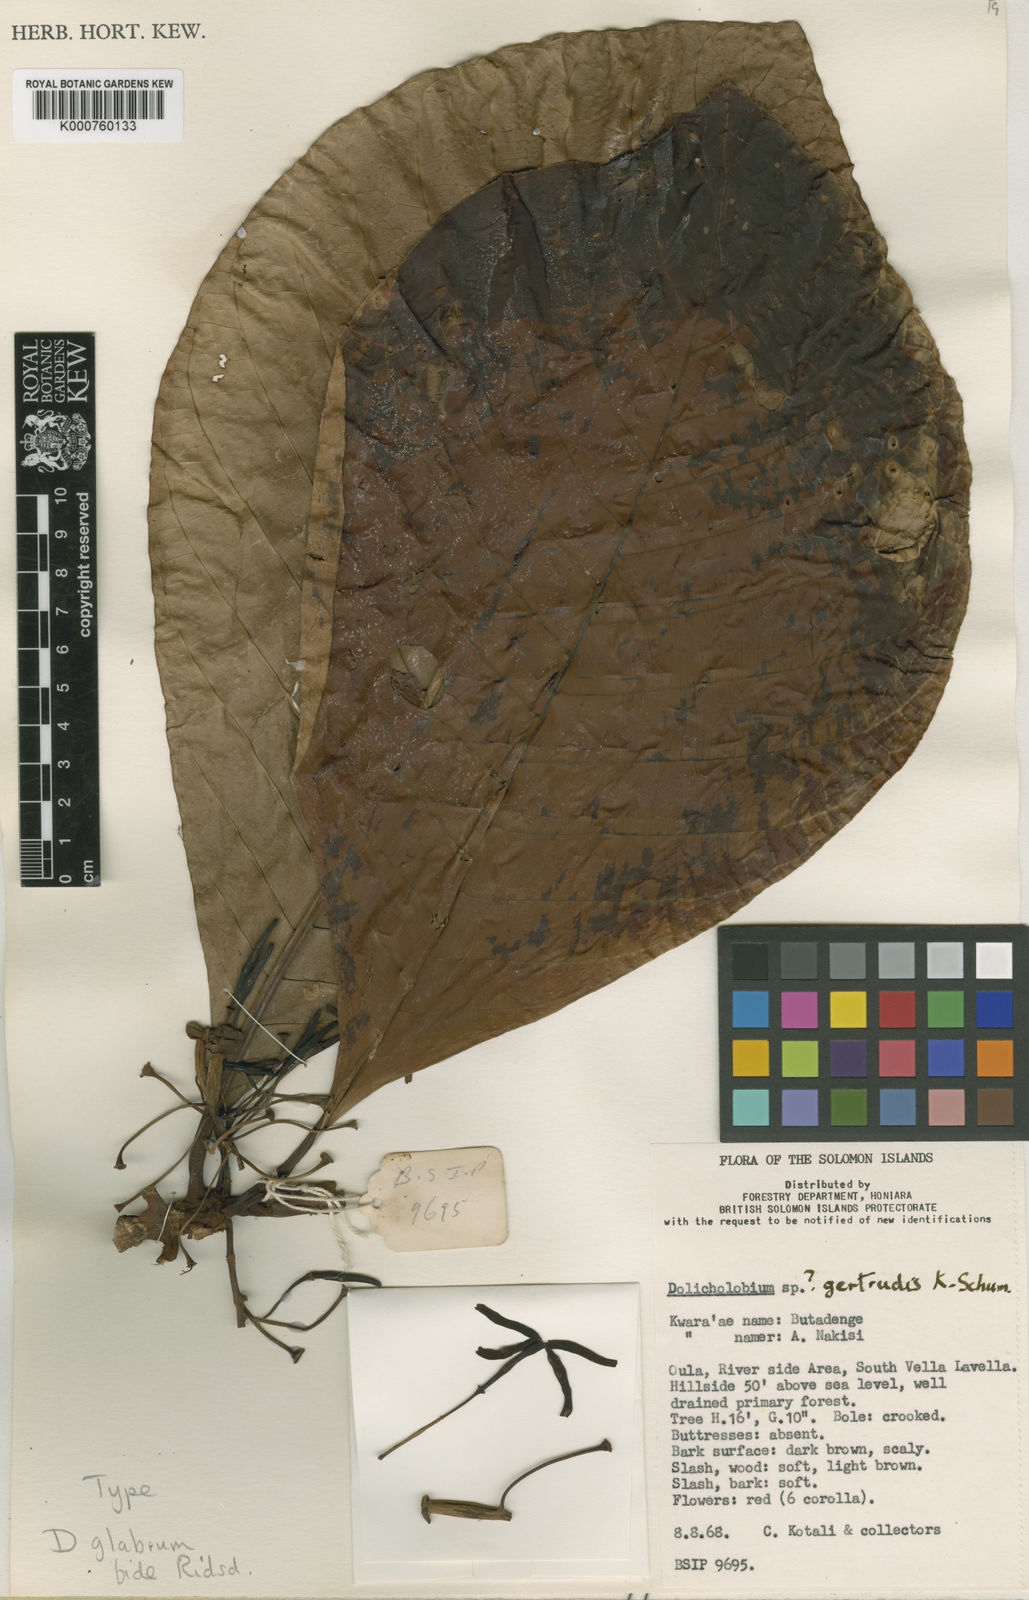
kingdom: Plantae
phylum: Tracheophyta
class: Magnoliopsida
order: Gentianales
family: Rubiaceae
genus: Dolicholobium
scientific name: Dolicholobium glabrum
